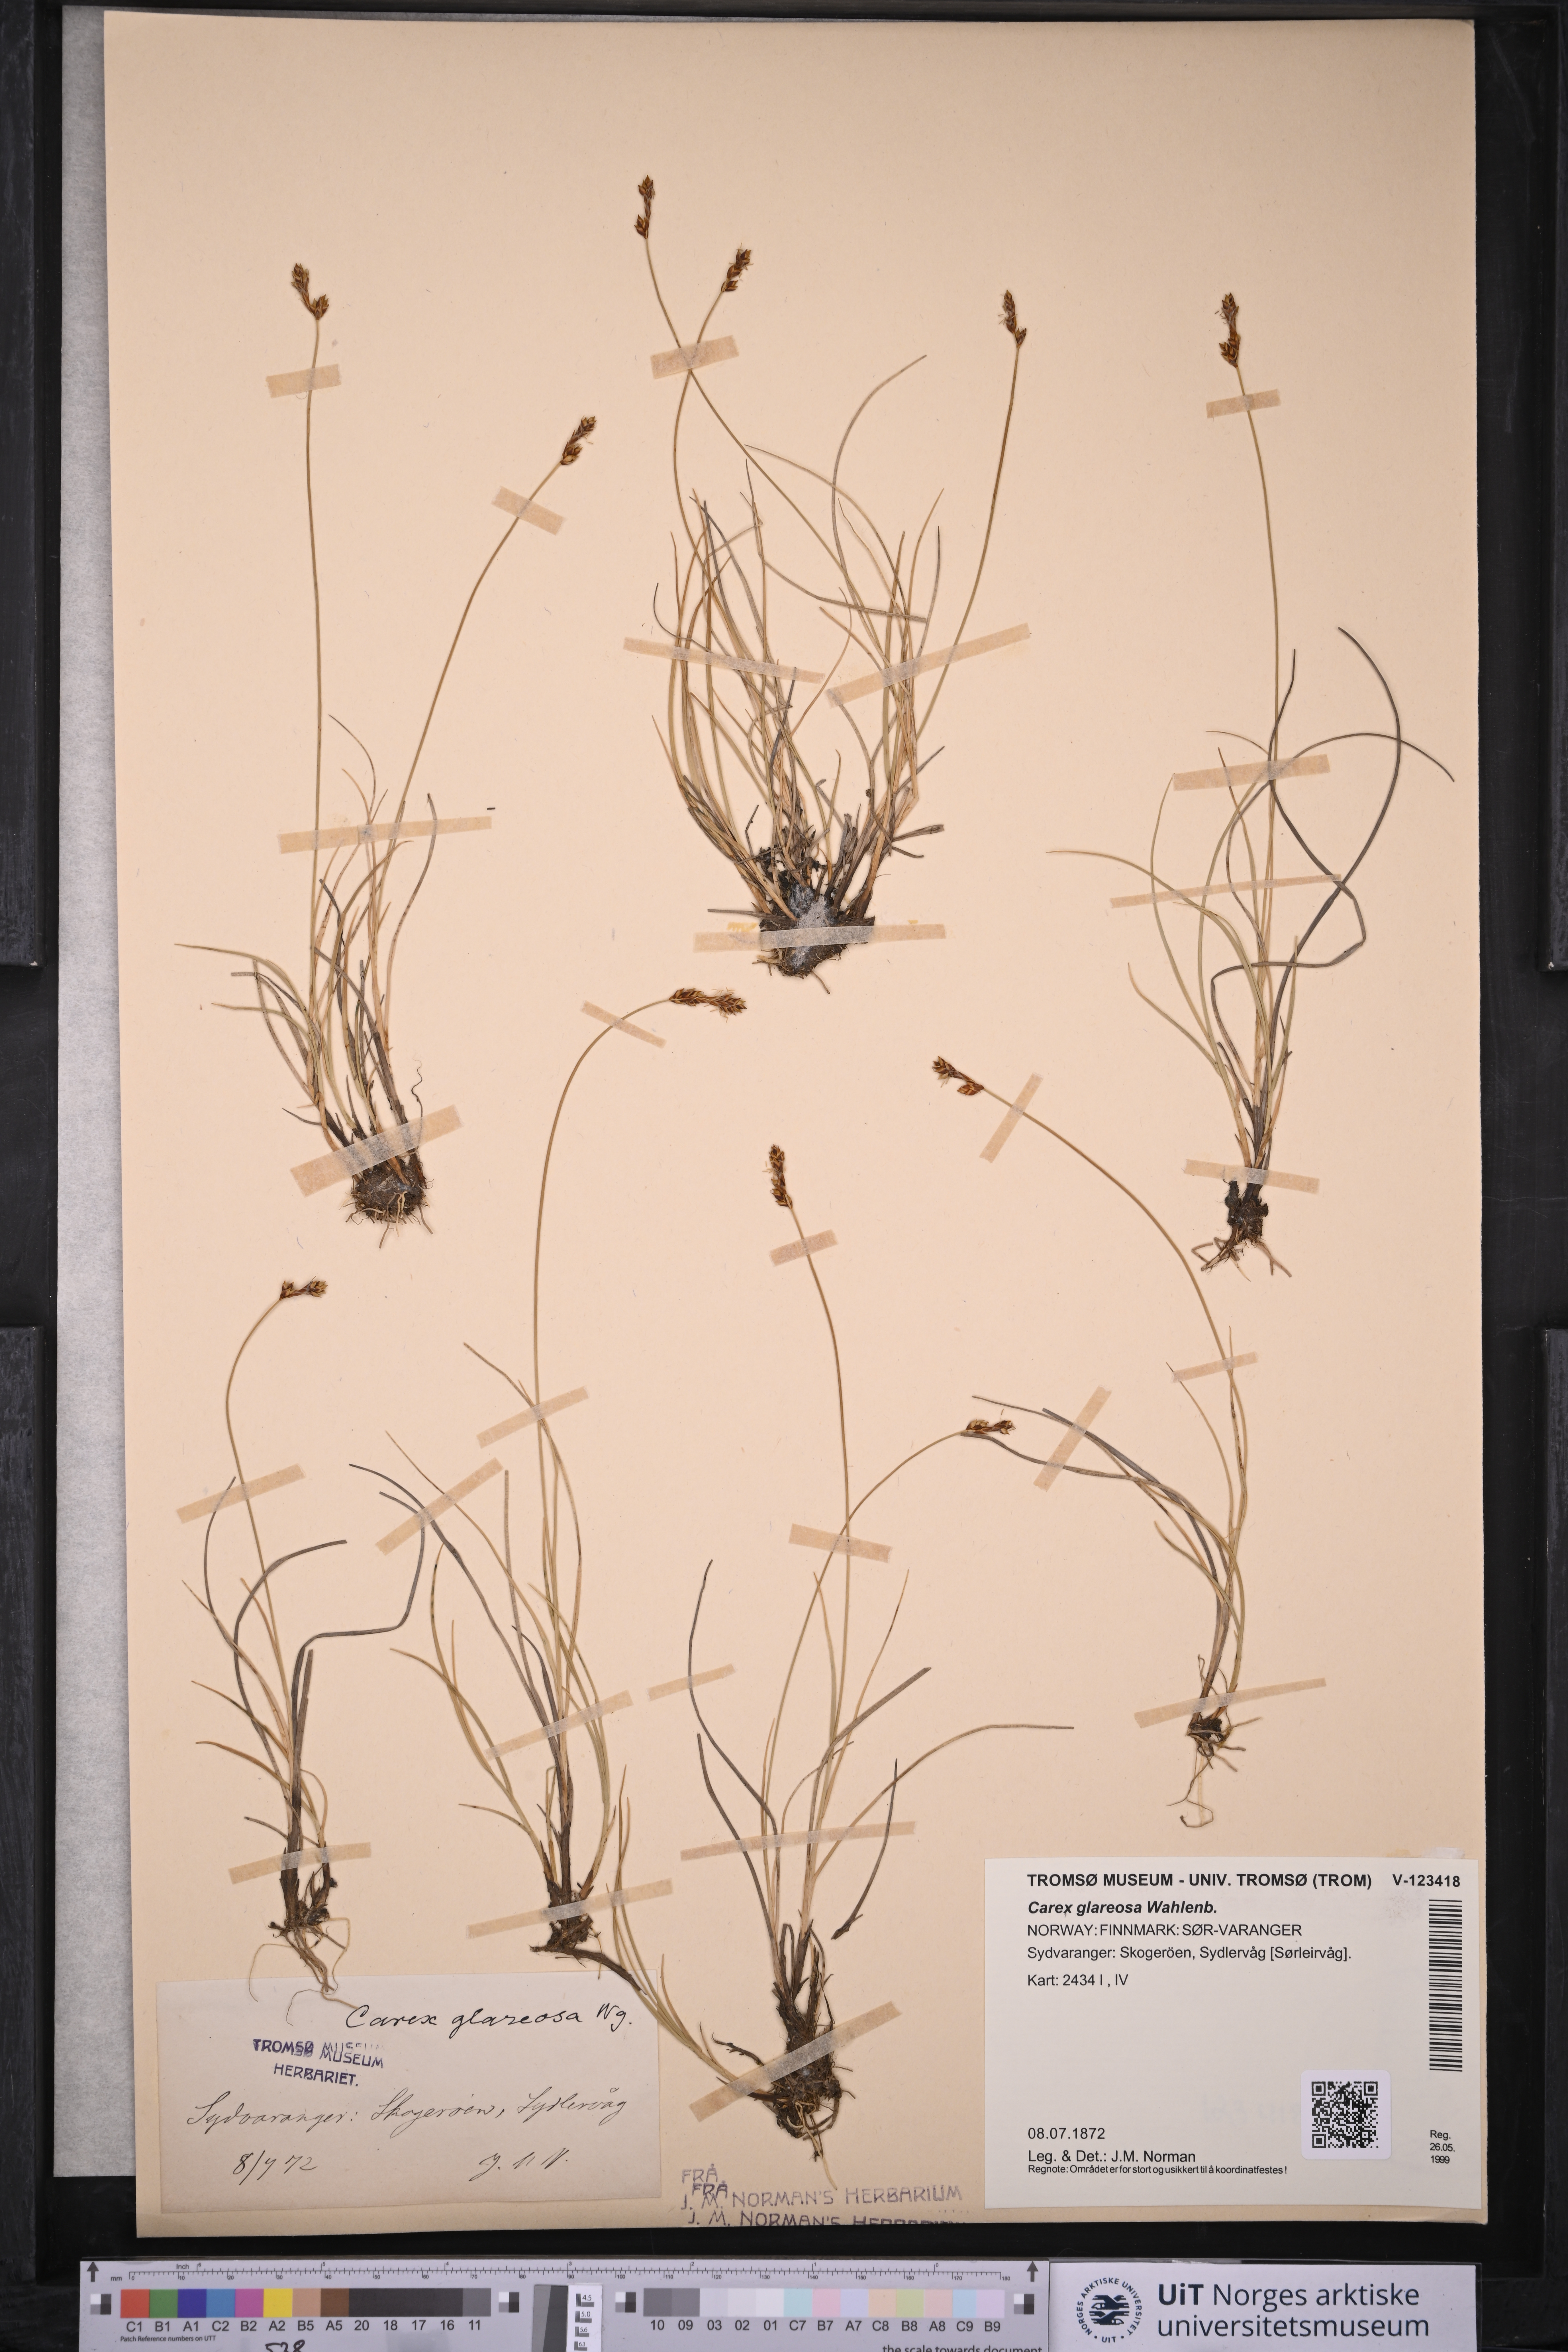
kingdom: Plantae
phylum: Tracheophyta
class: Liliopsida
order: Poales
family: Cyperaceae
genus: Carex
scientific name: Carex glareosa
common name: Clustered sedge
